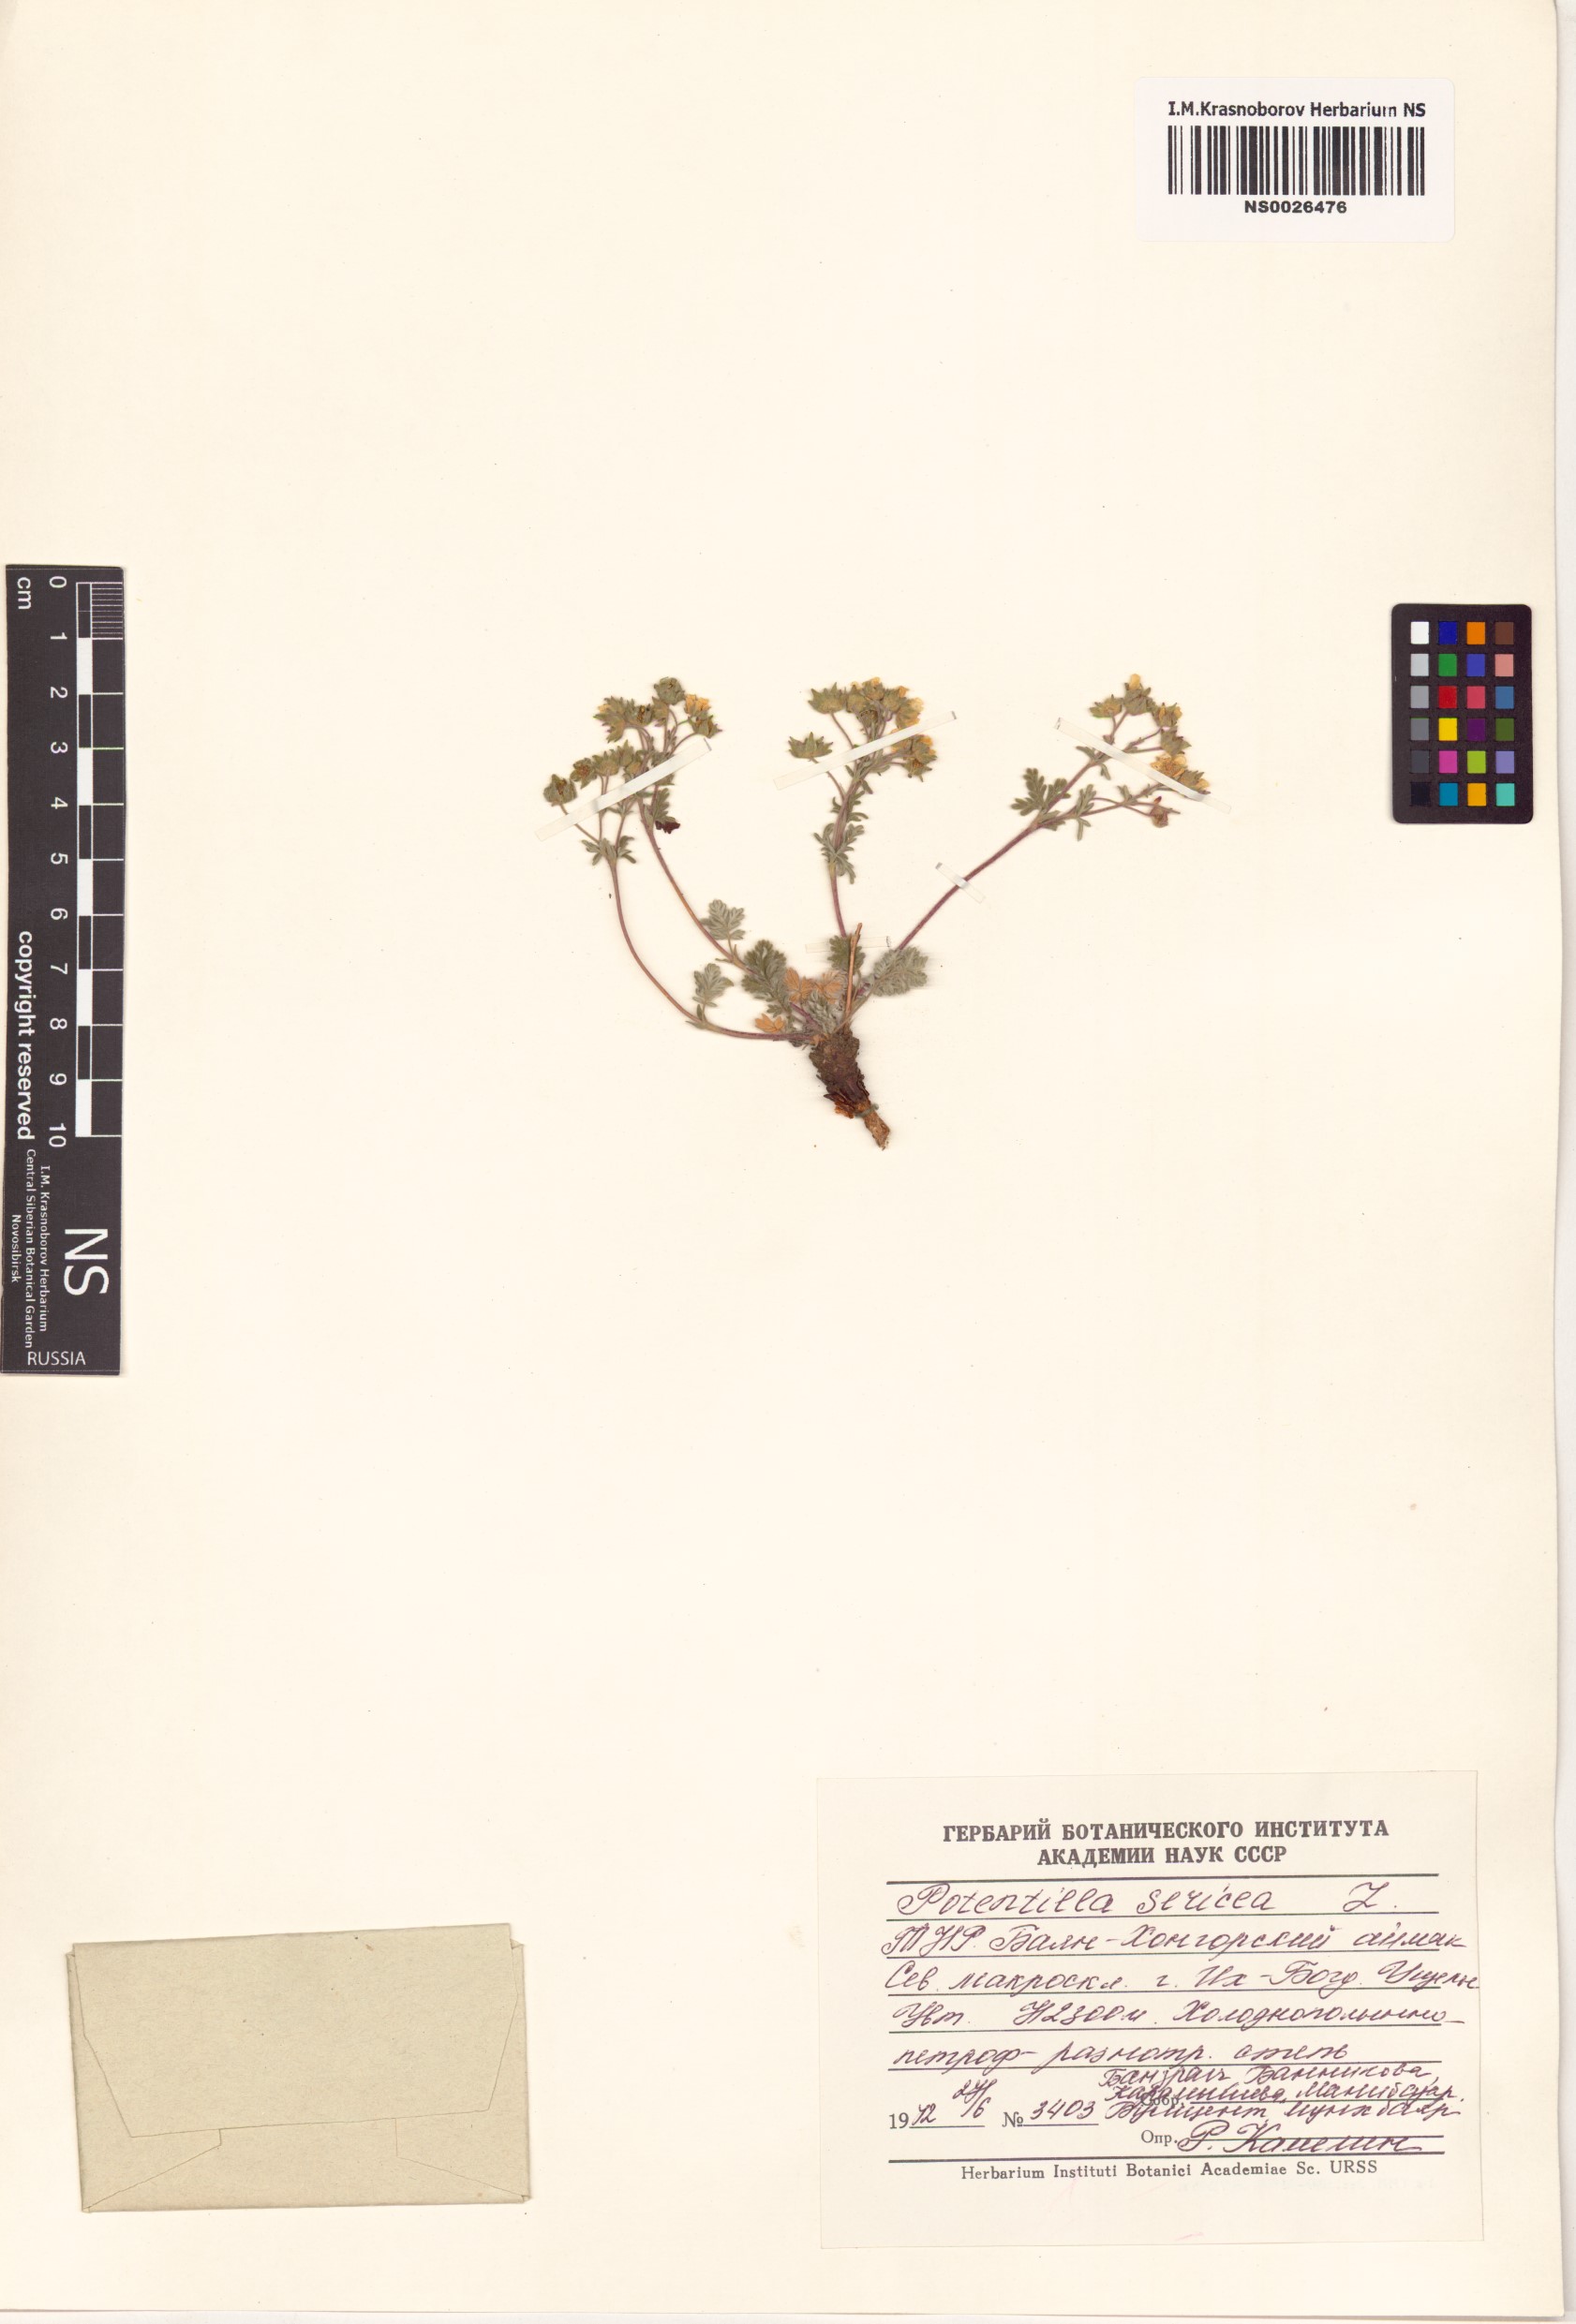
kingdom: Plantae
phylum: Tracheophyta
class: Magnoliopsida
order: Rosales
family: Rosaceae
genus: Potentilla
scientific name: Potentilla sericea
